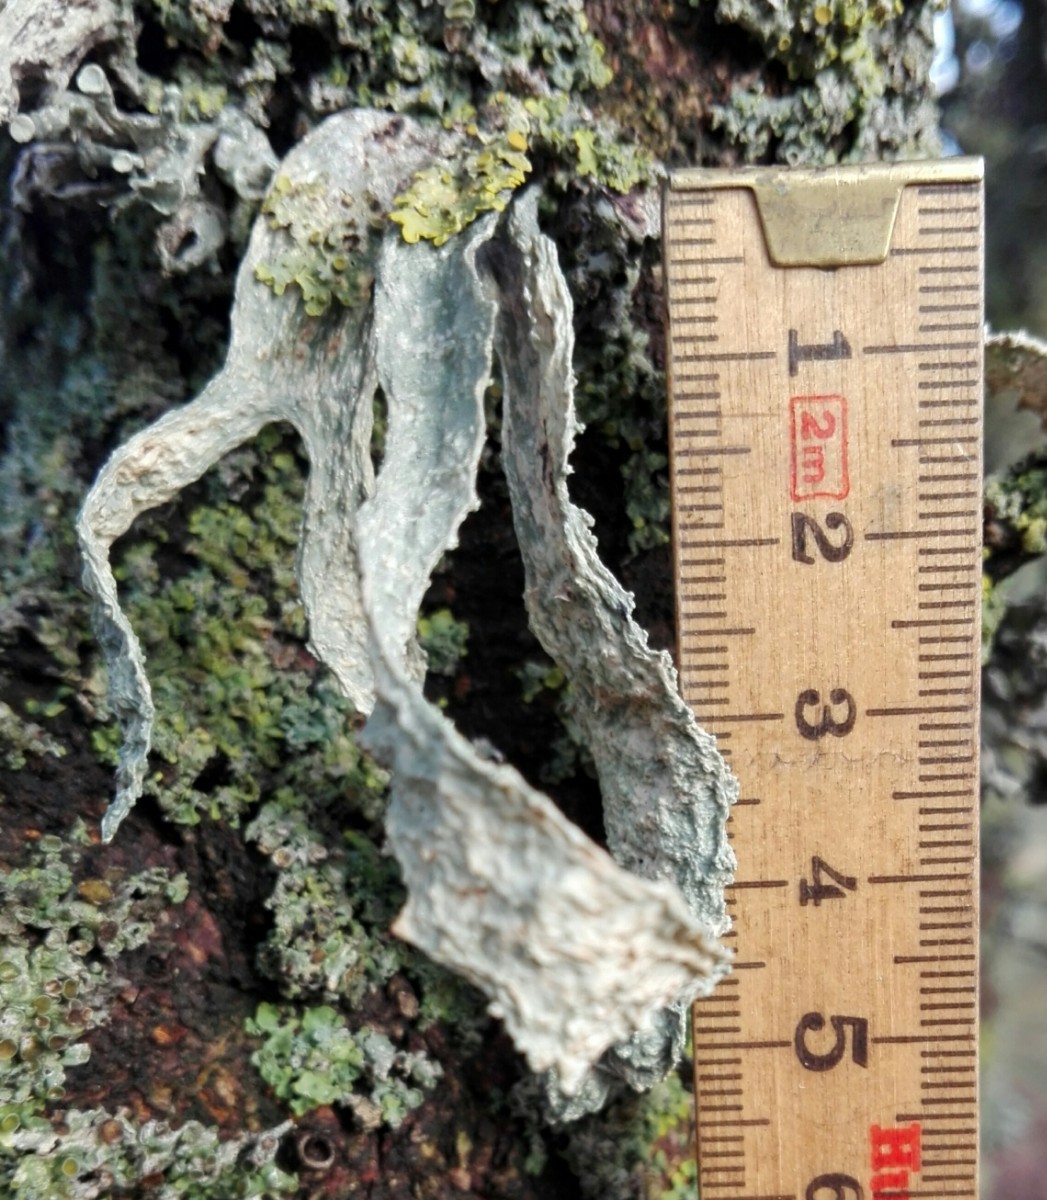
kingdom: Fungi
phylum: Ascomycota
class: Lecanoromycetes
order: Lecanorales
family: Ramalinaceae
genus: Ramalina
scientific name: Ramalina fraxinea
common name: stor grenlav
